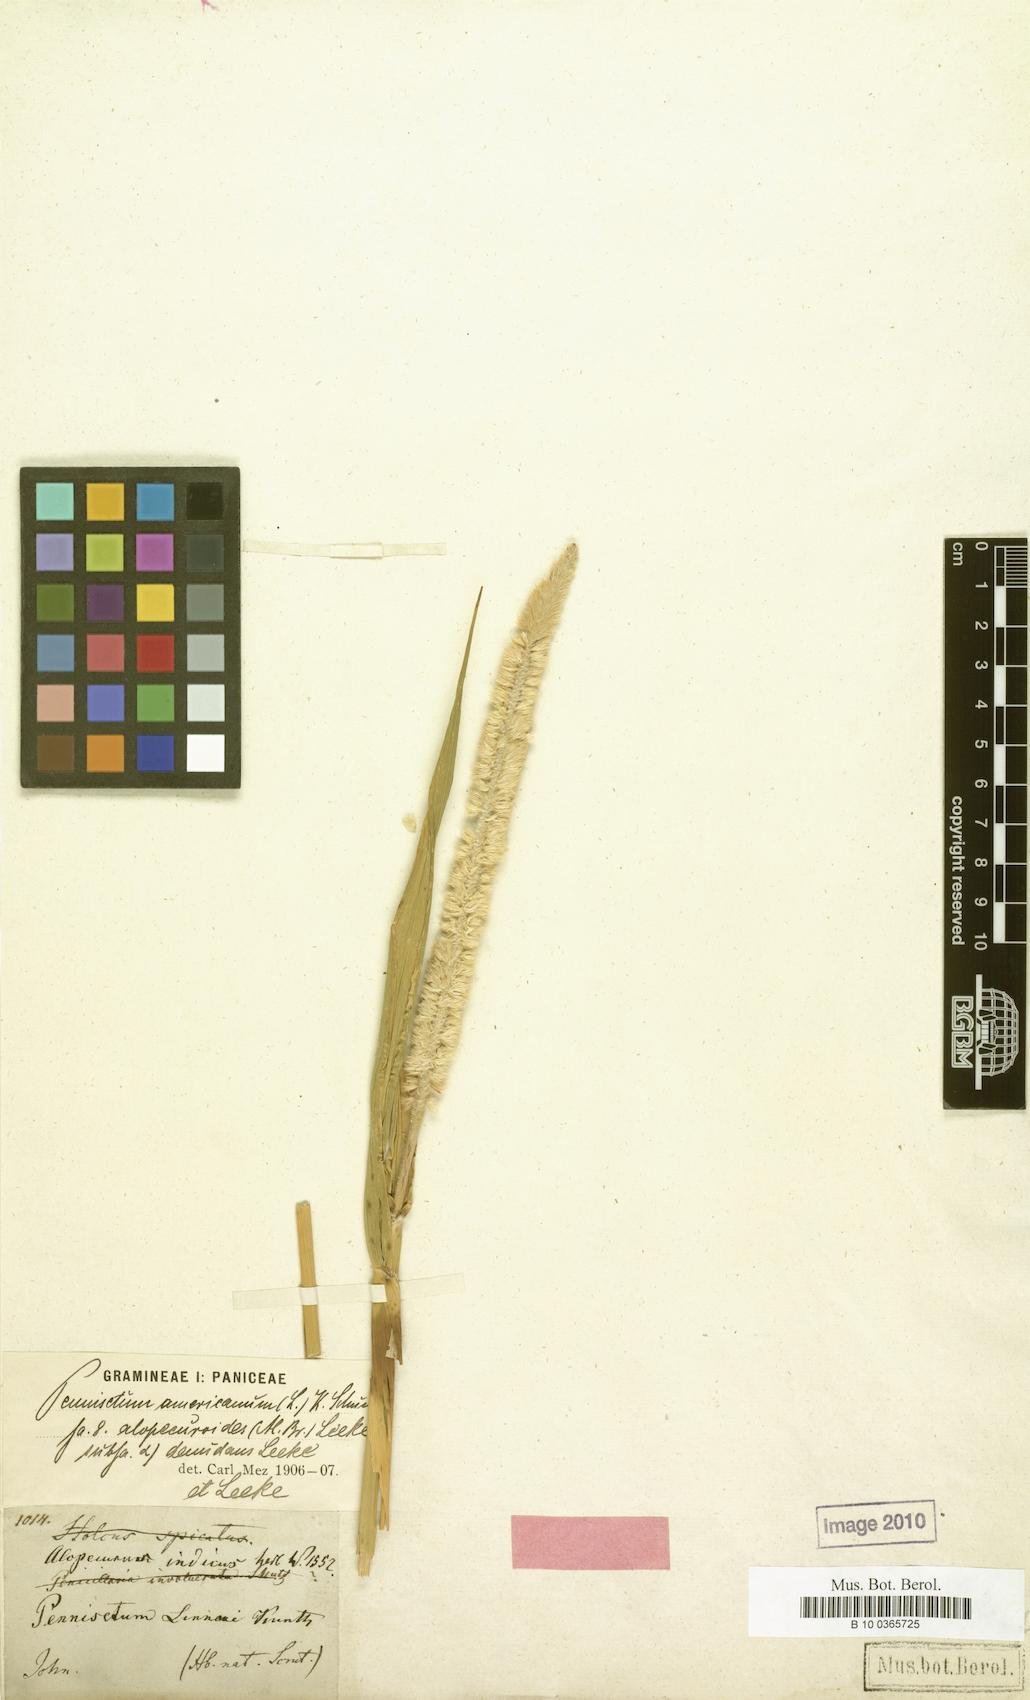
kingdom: Plantae
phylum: Tracheophyta
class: Liliopsida
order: Poales
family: Poaceae
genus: Cenchrus
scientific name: Cenchrus americanus
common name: Pearl millet
